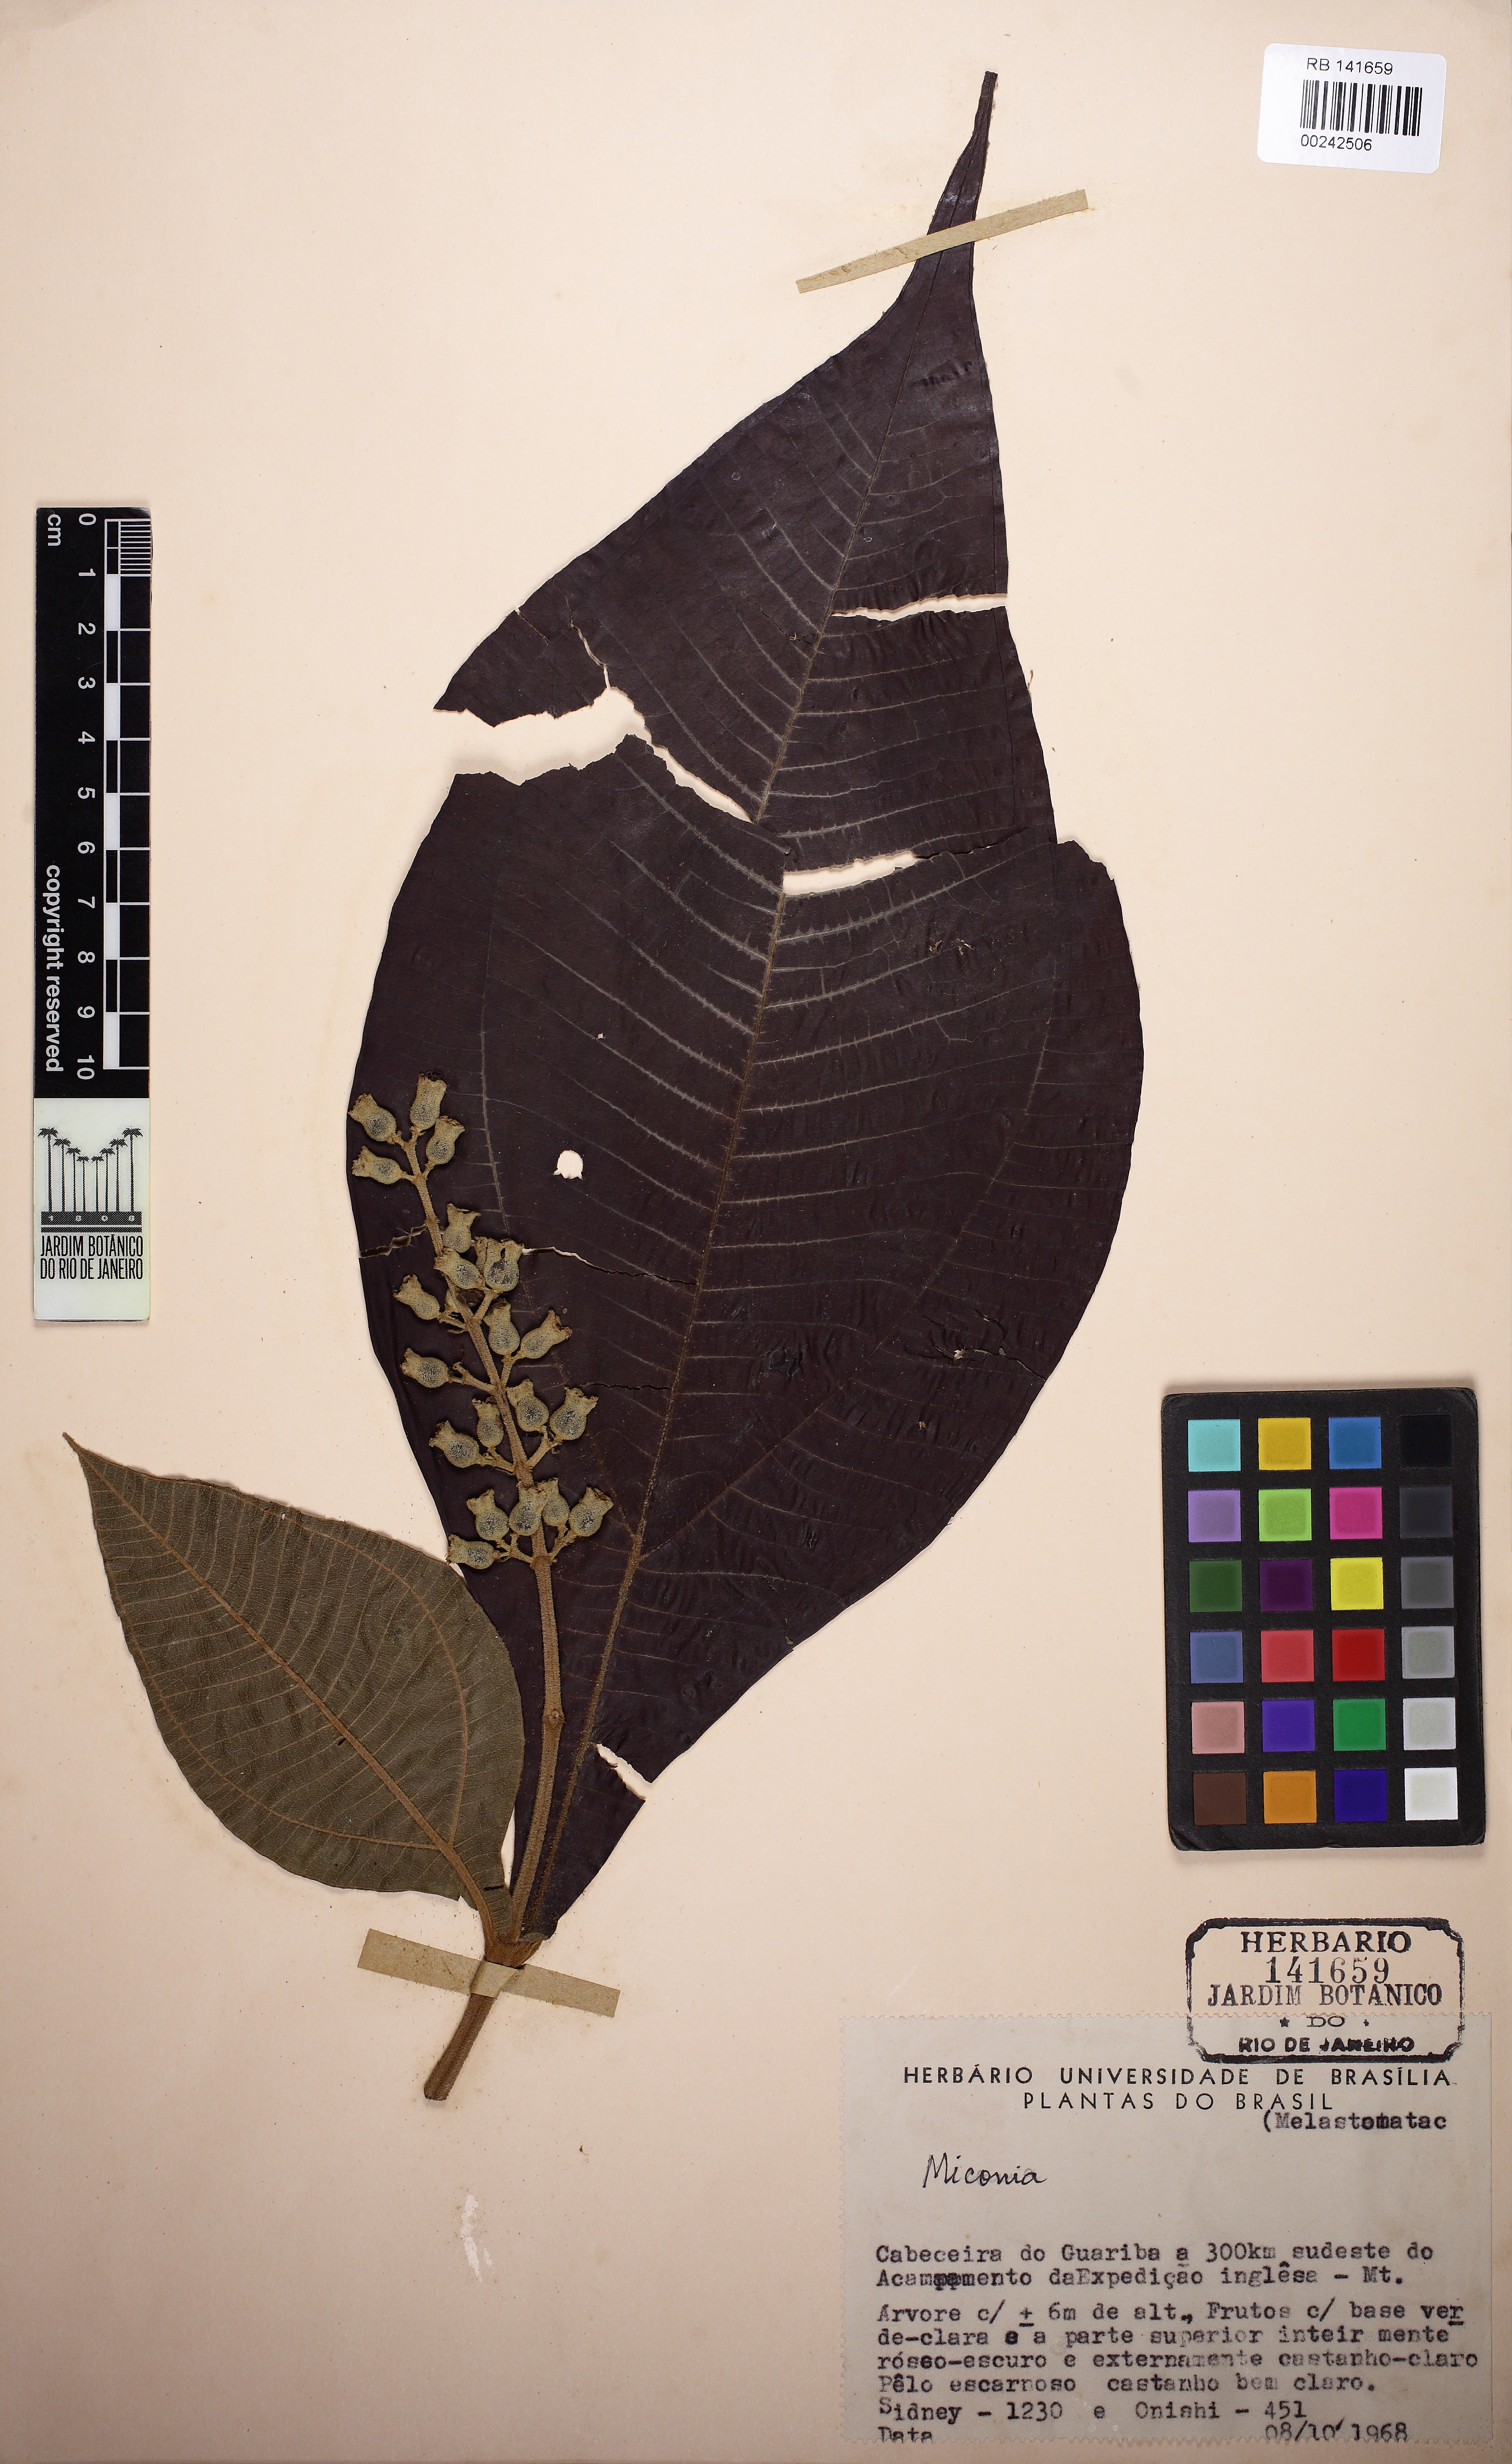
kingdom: Plantae
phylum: Tracheophyta
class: Magnoliopsida
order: Myrtales
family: Melastomataceae
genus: Miconia
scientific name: Miconia tomentosa
